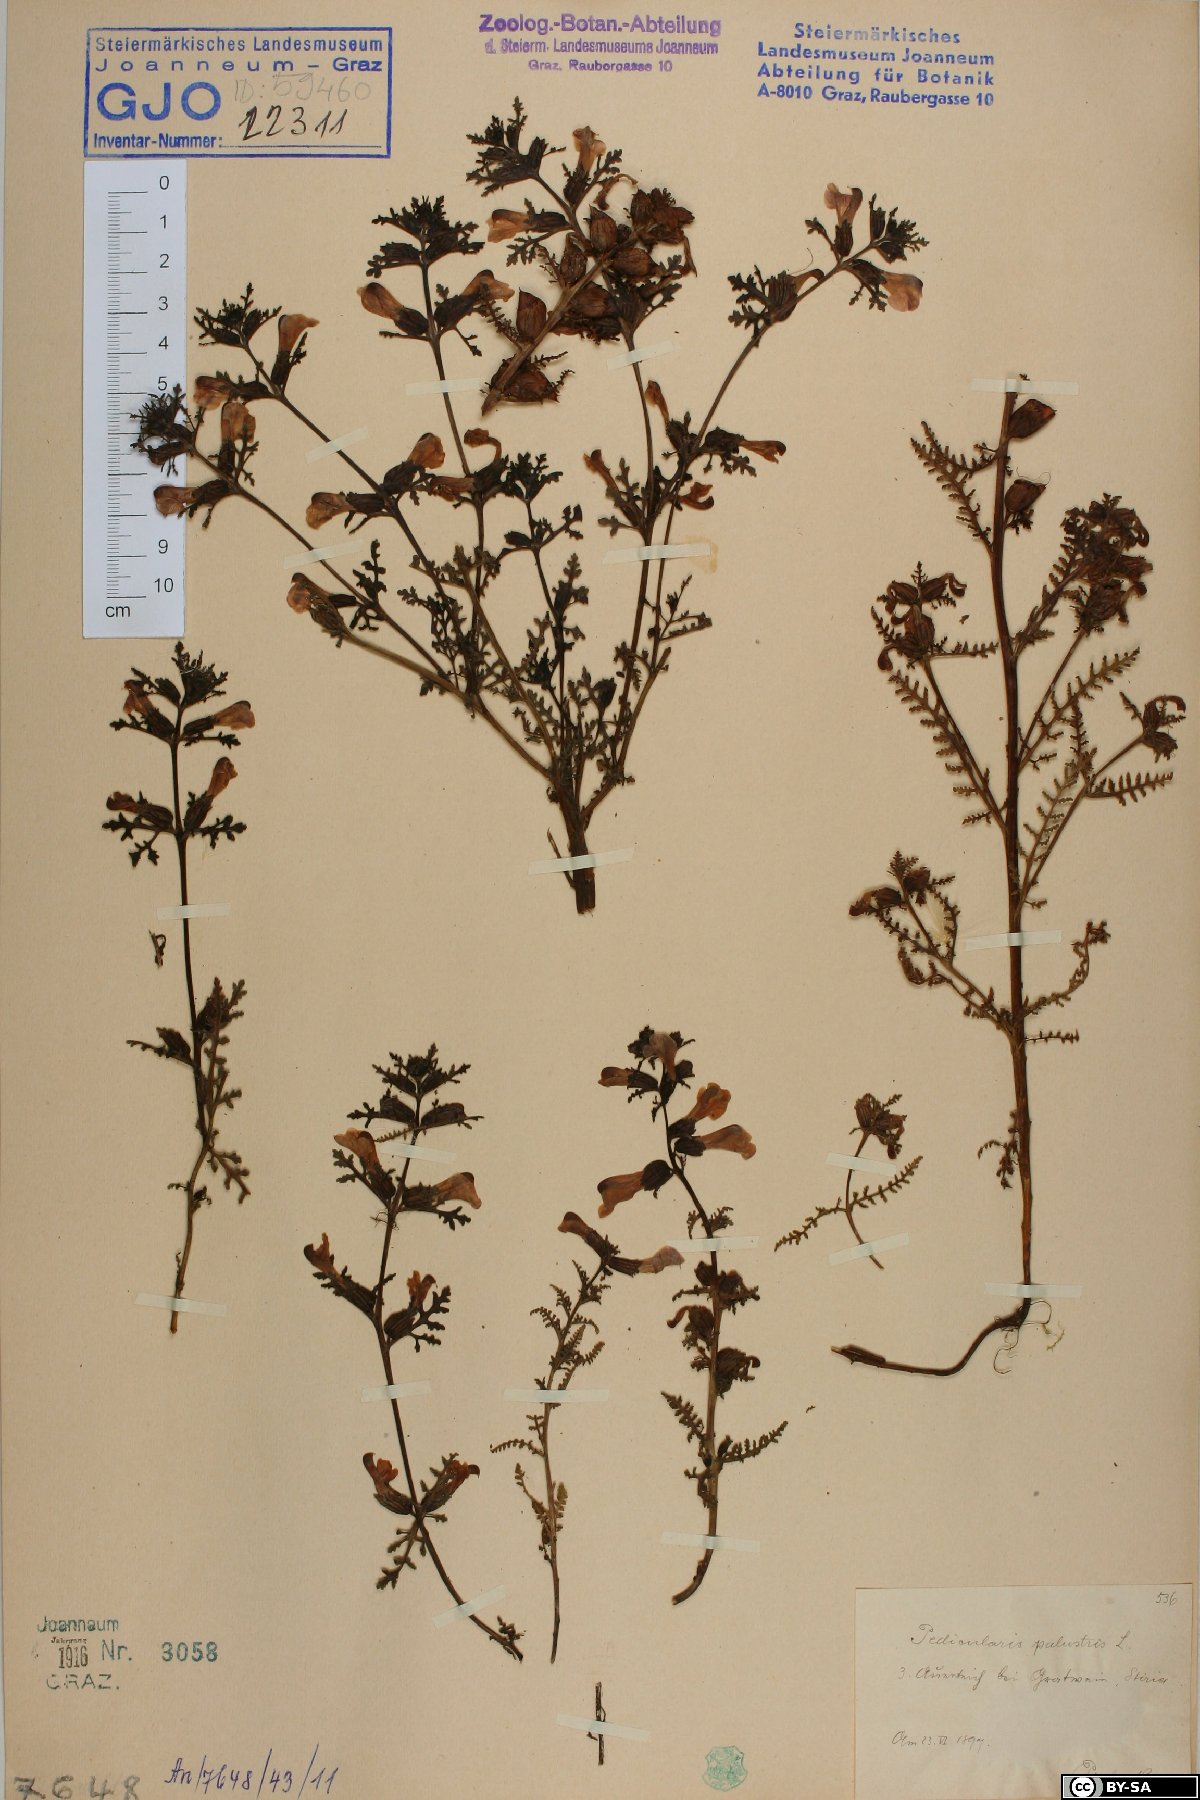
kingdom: Plantae
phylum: Tracheophyta
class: Magnoliopsida
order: Lamiales
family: Orobanchaceae
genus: Pedicularis
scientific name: Pedicularis palustris
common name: Marsh lousewort
